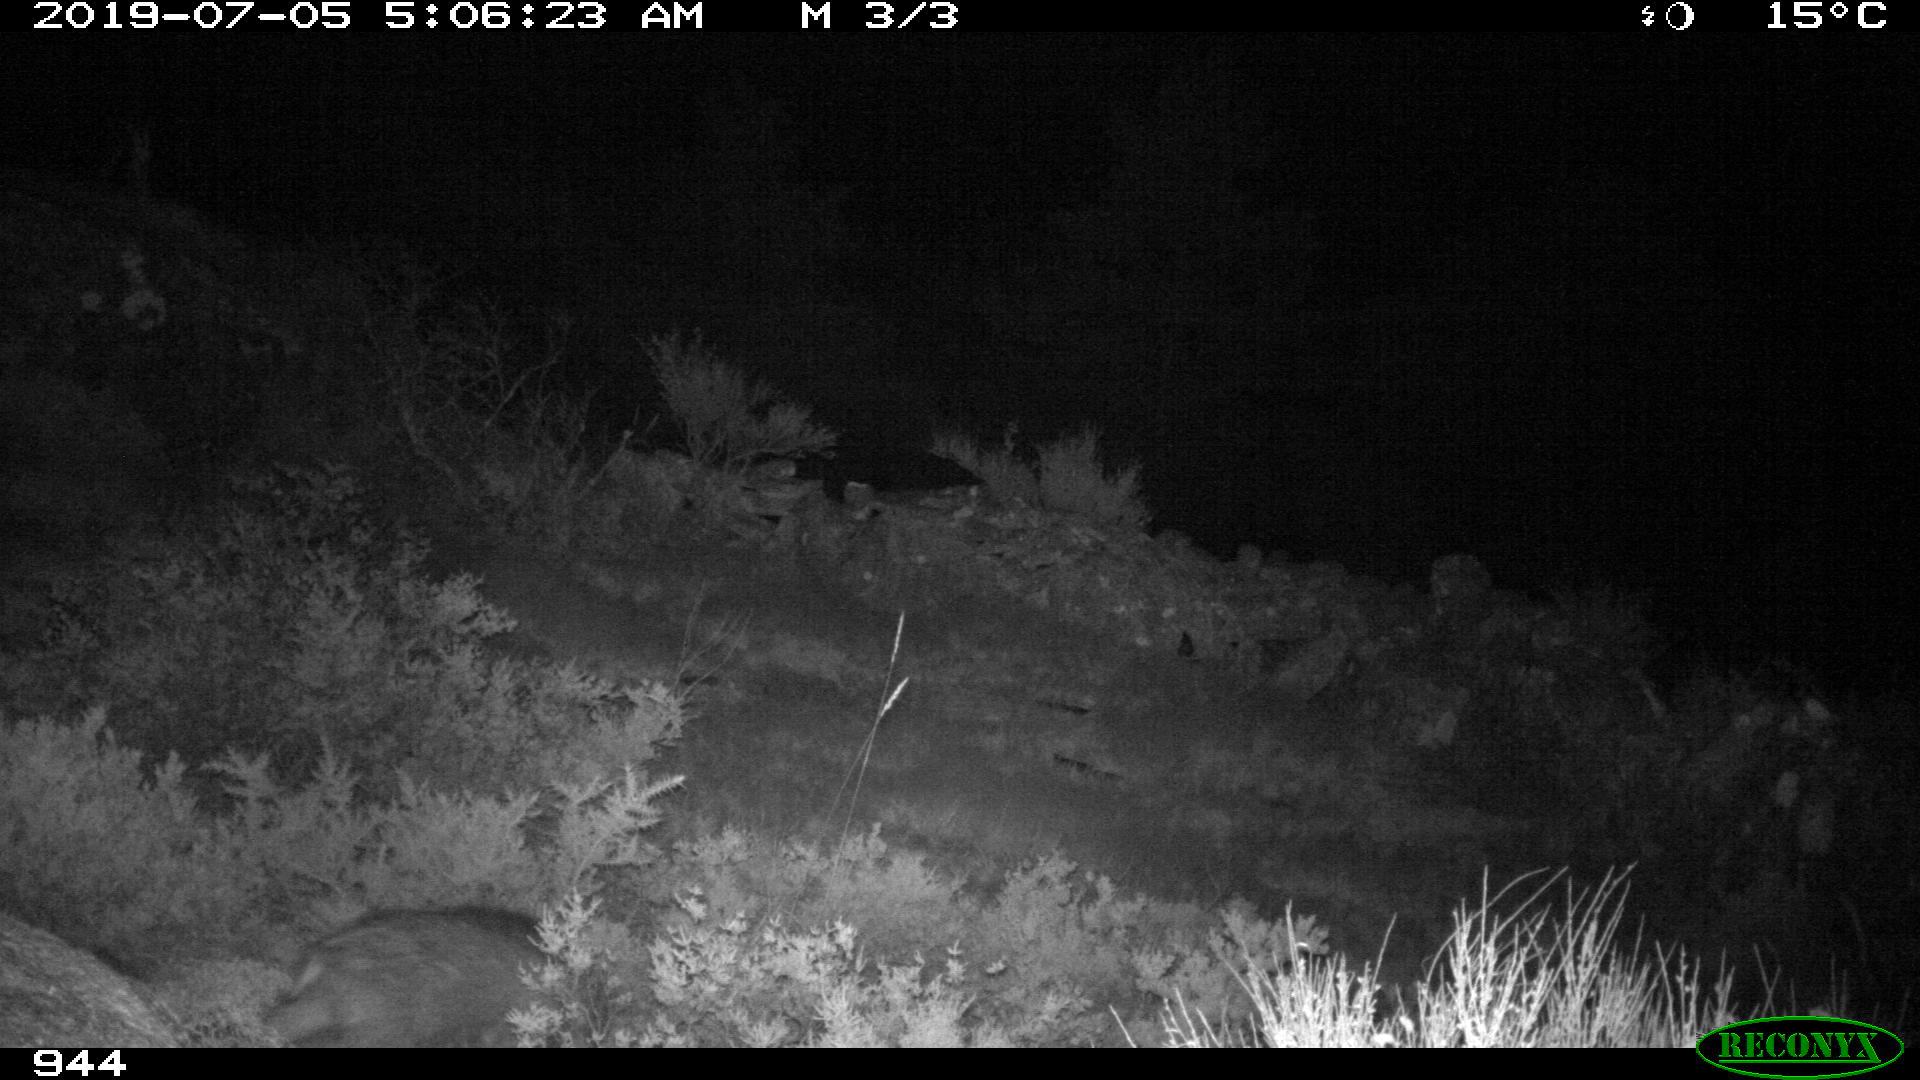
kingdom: Animalia
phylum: Chordata
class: Mammalia
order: Artiodactyla
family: Suidae
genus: Sus
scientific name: Sus scrofa
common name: Wild boar
